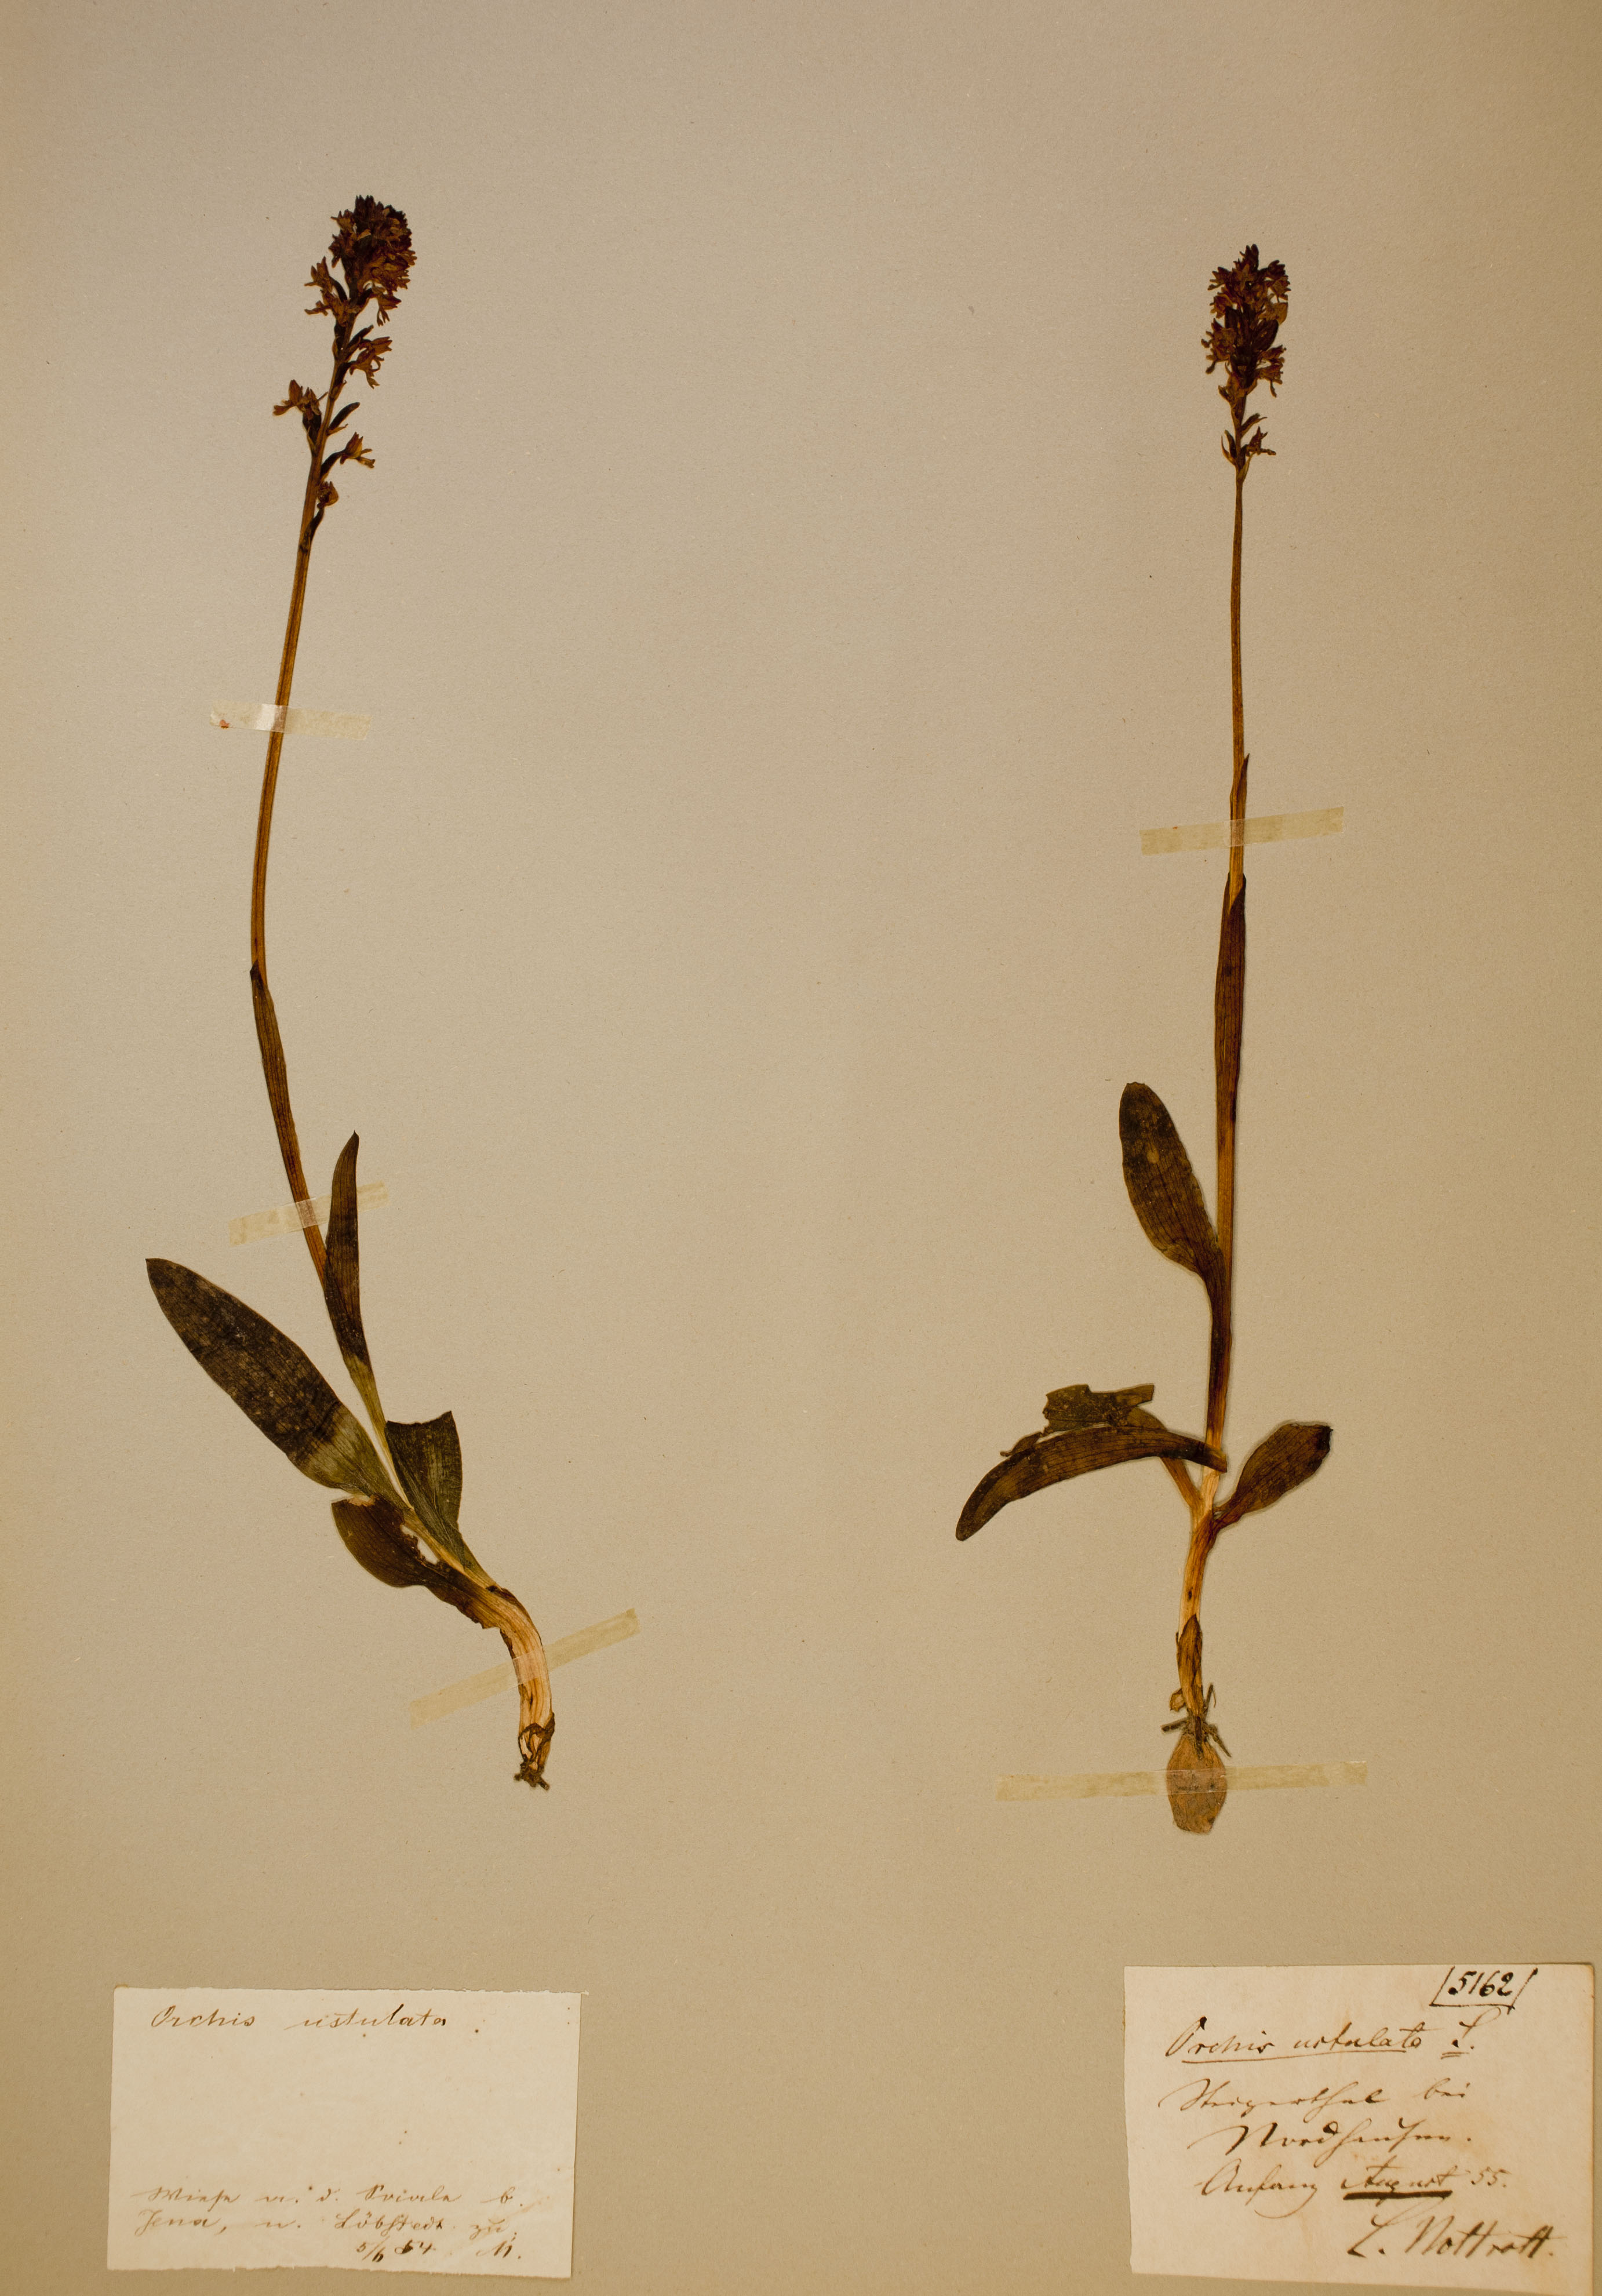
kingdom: Plantae
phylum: Tracheophyta
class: Liliopsida
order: Asparagales
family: Orchidaceae
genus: Neotinea
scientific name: Neotinea ustulata
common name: Burnt orchid
